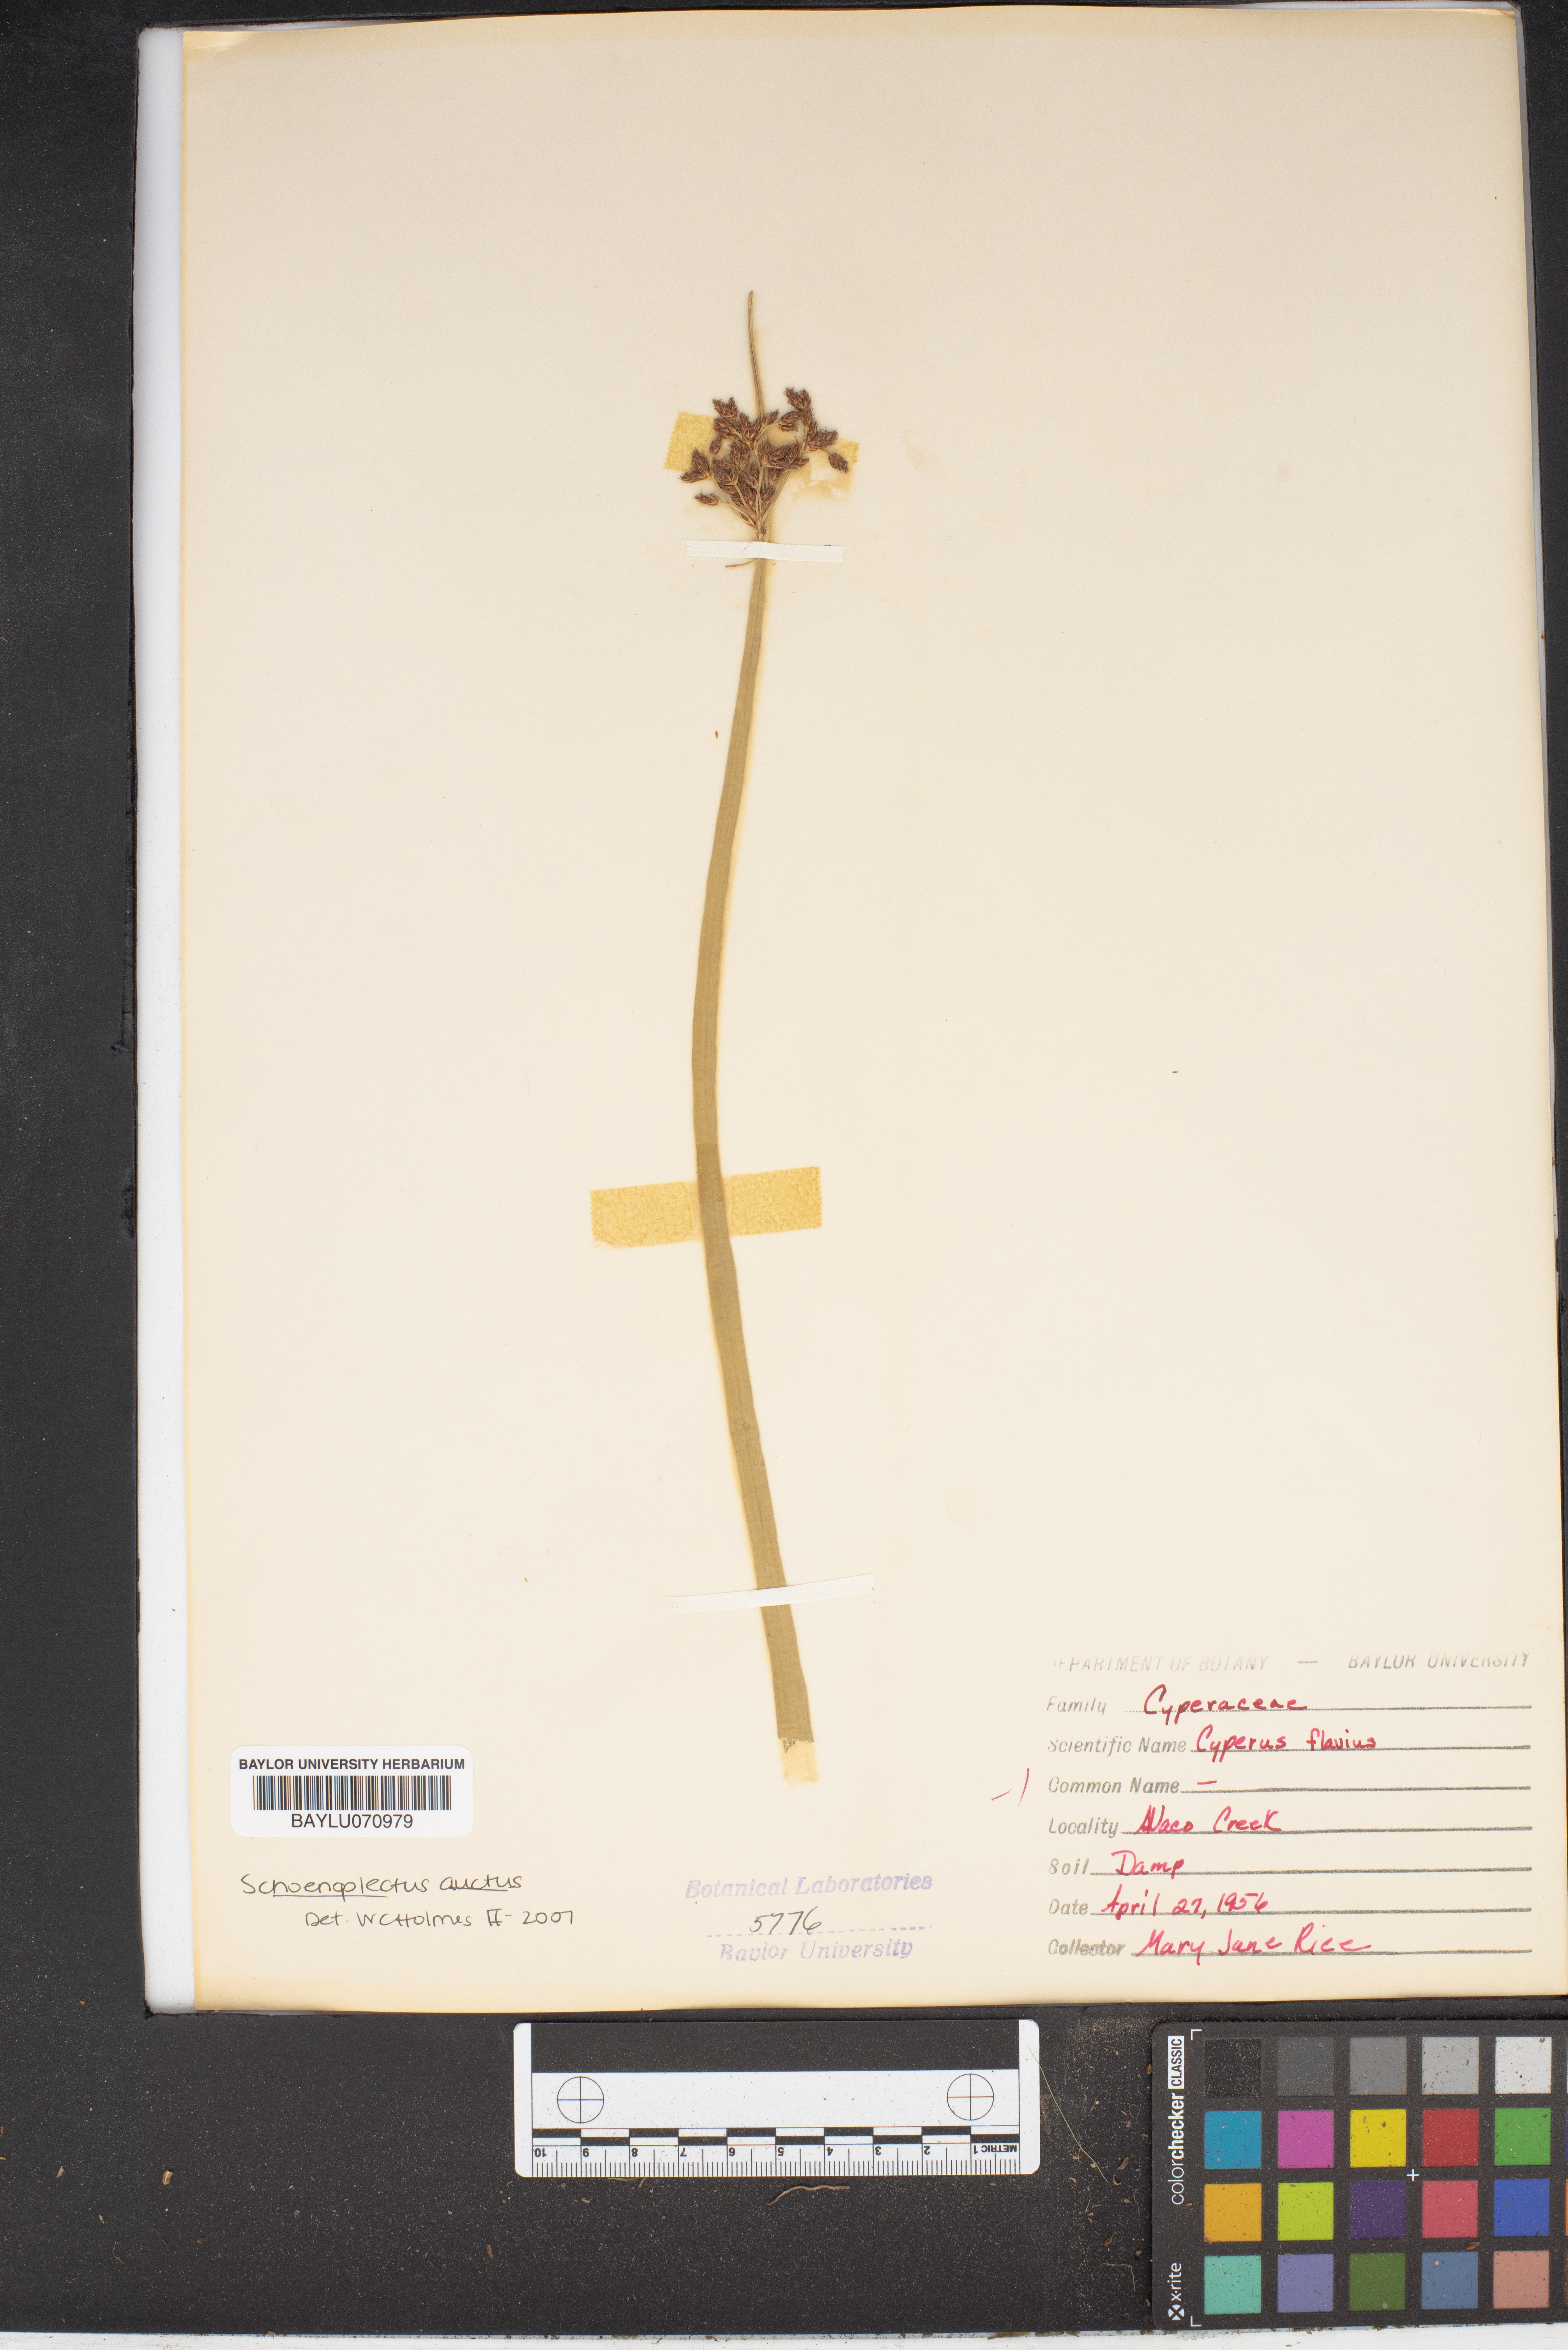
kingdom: Plantae
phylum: Tracheophyta
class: Liliopsida
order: Poales
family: Cyperaceae
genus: Cyperus
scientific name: Cyperus flavidus
